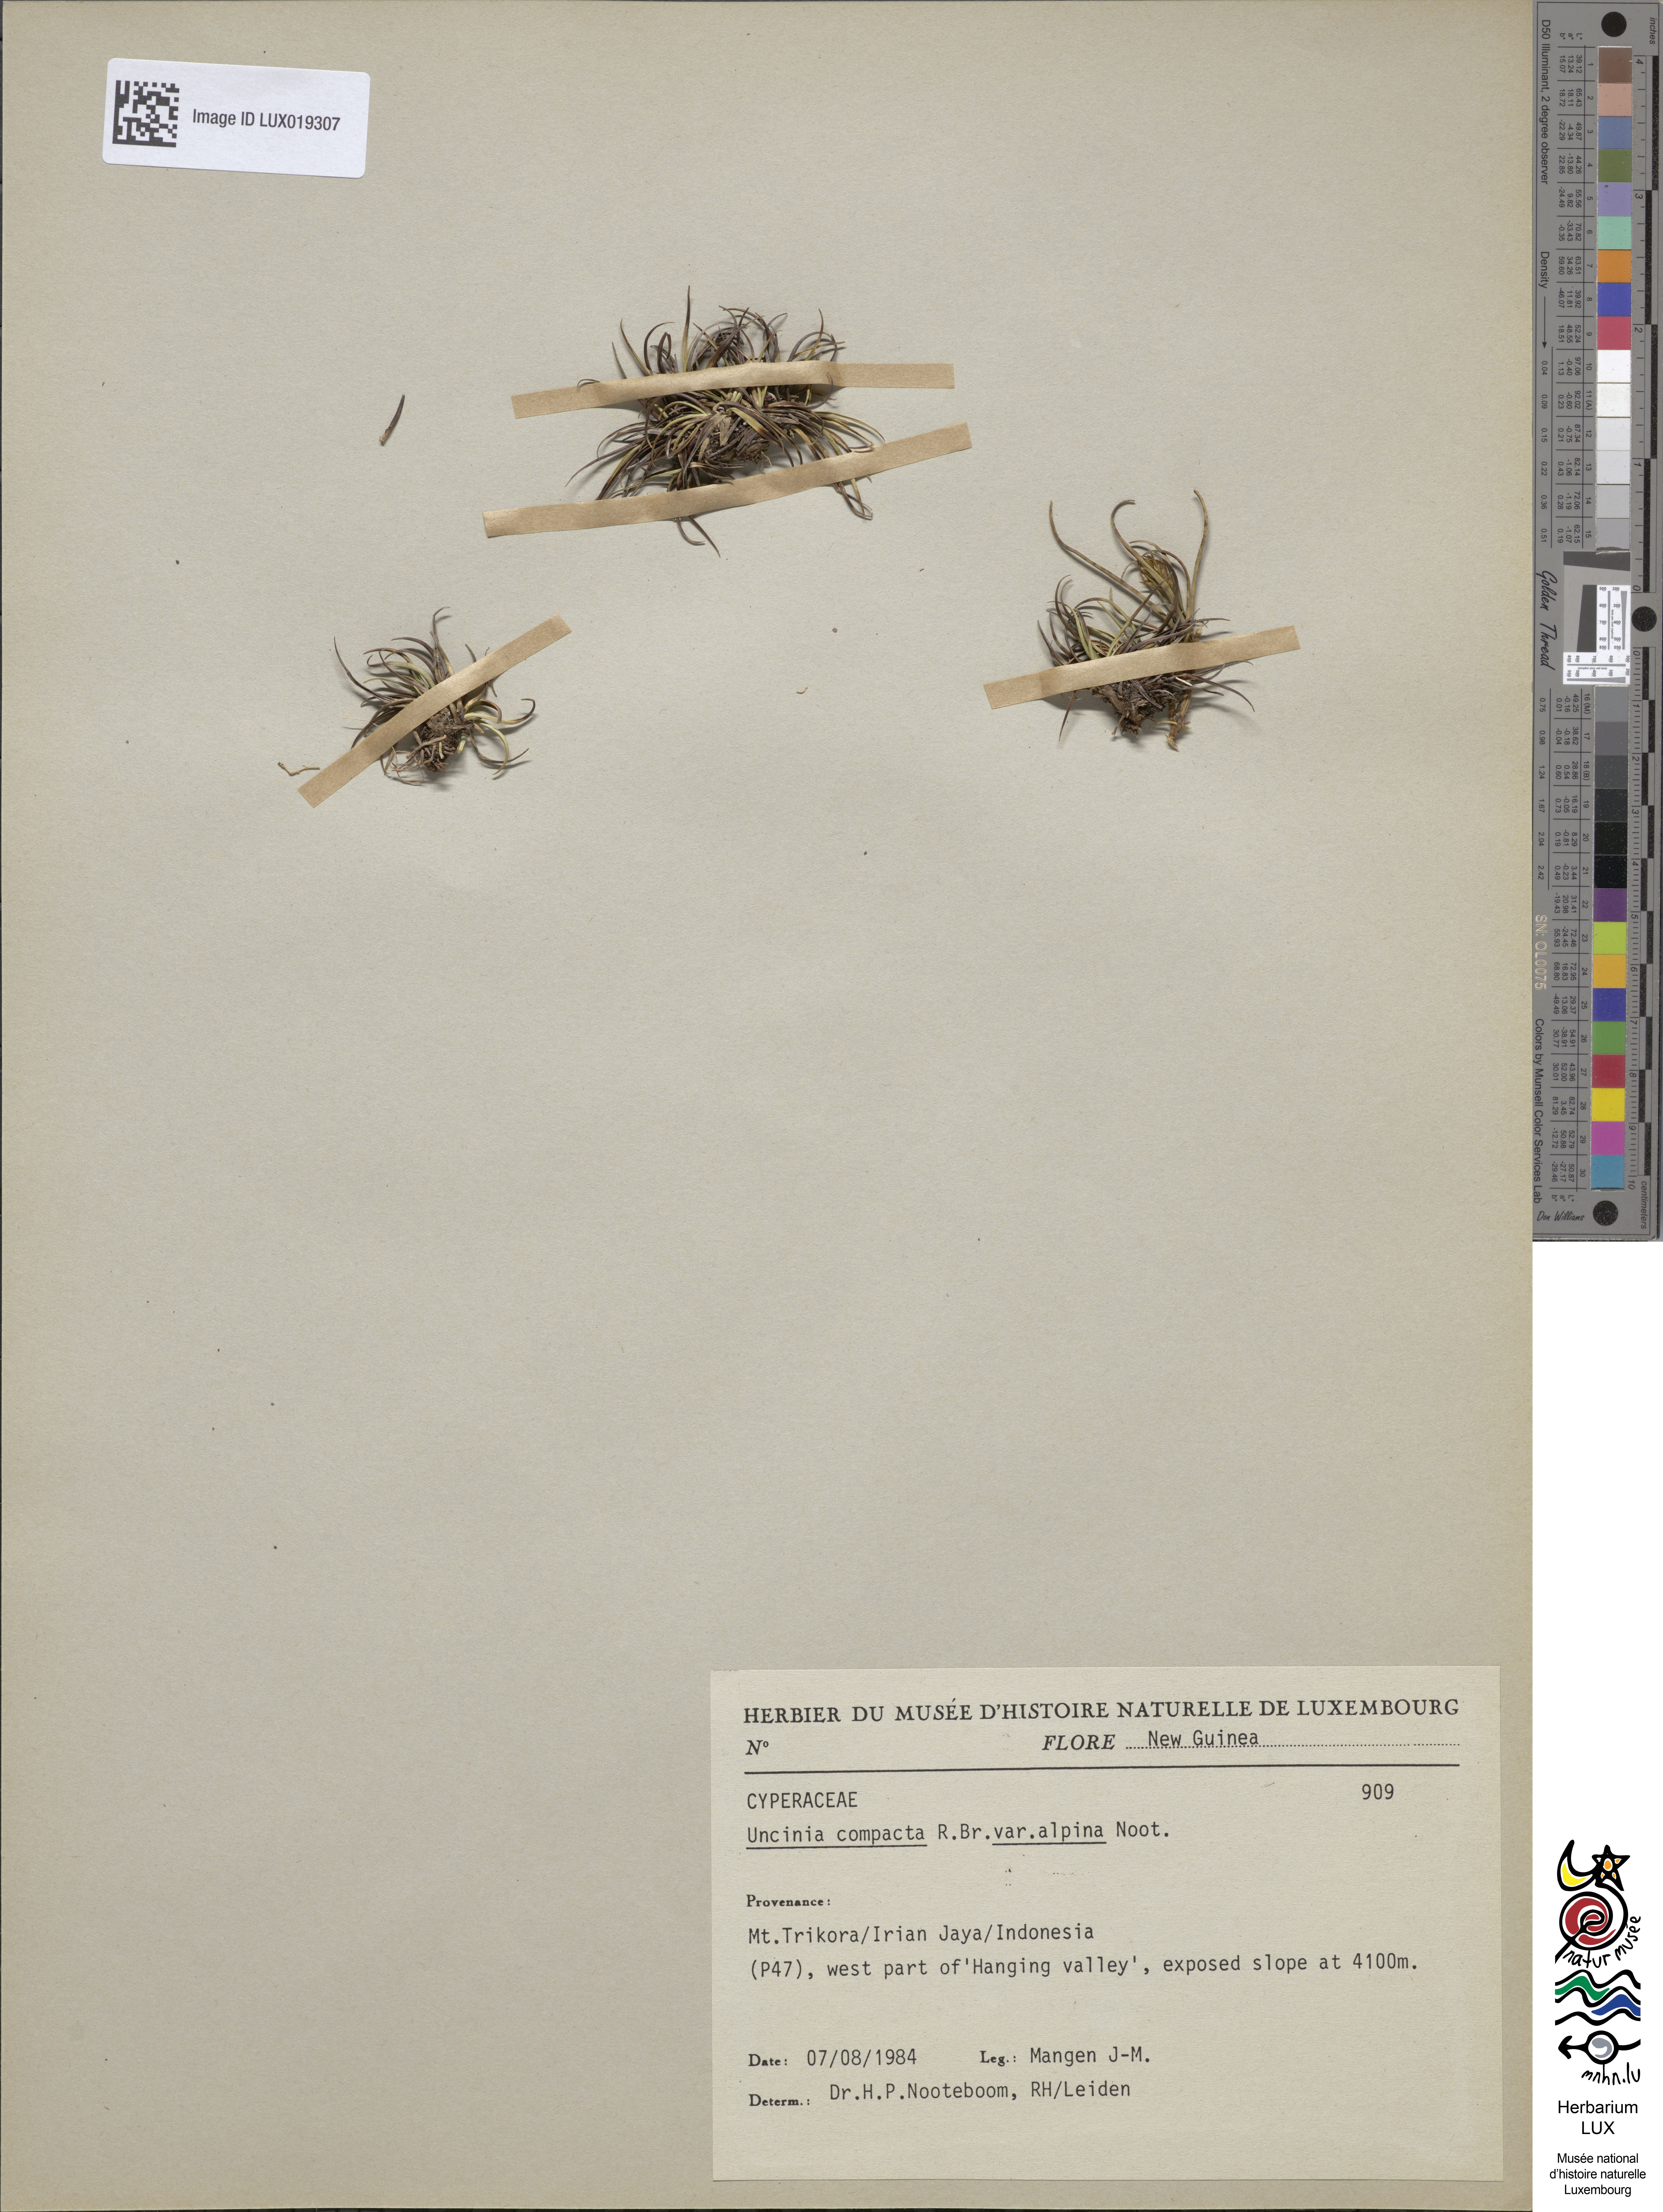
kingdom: Plantae
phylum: Tracheophyta
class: Liliopsida
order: Poales
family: Cyperaceae
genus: Carex
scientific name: Carex papualpina
